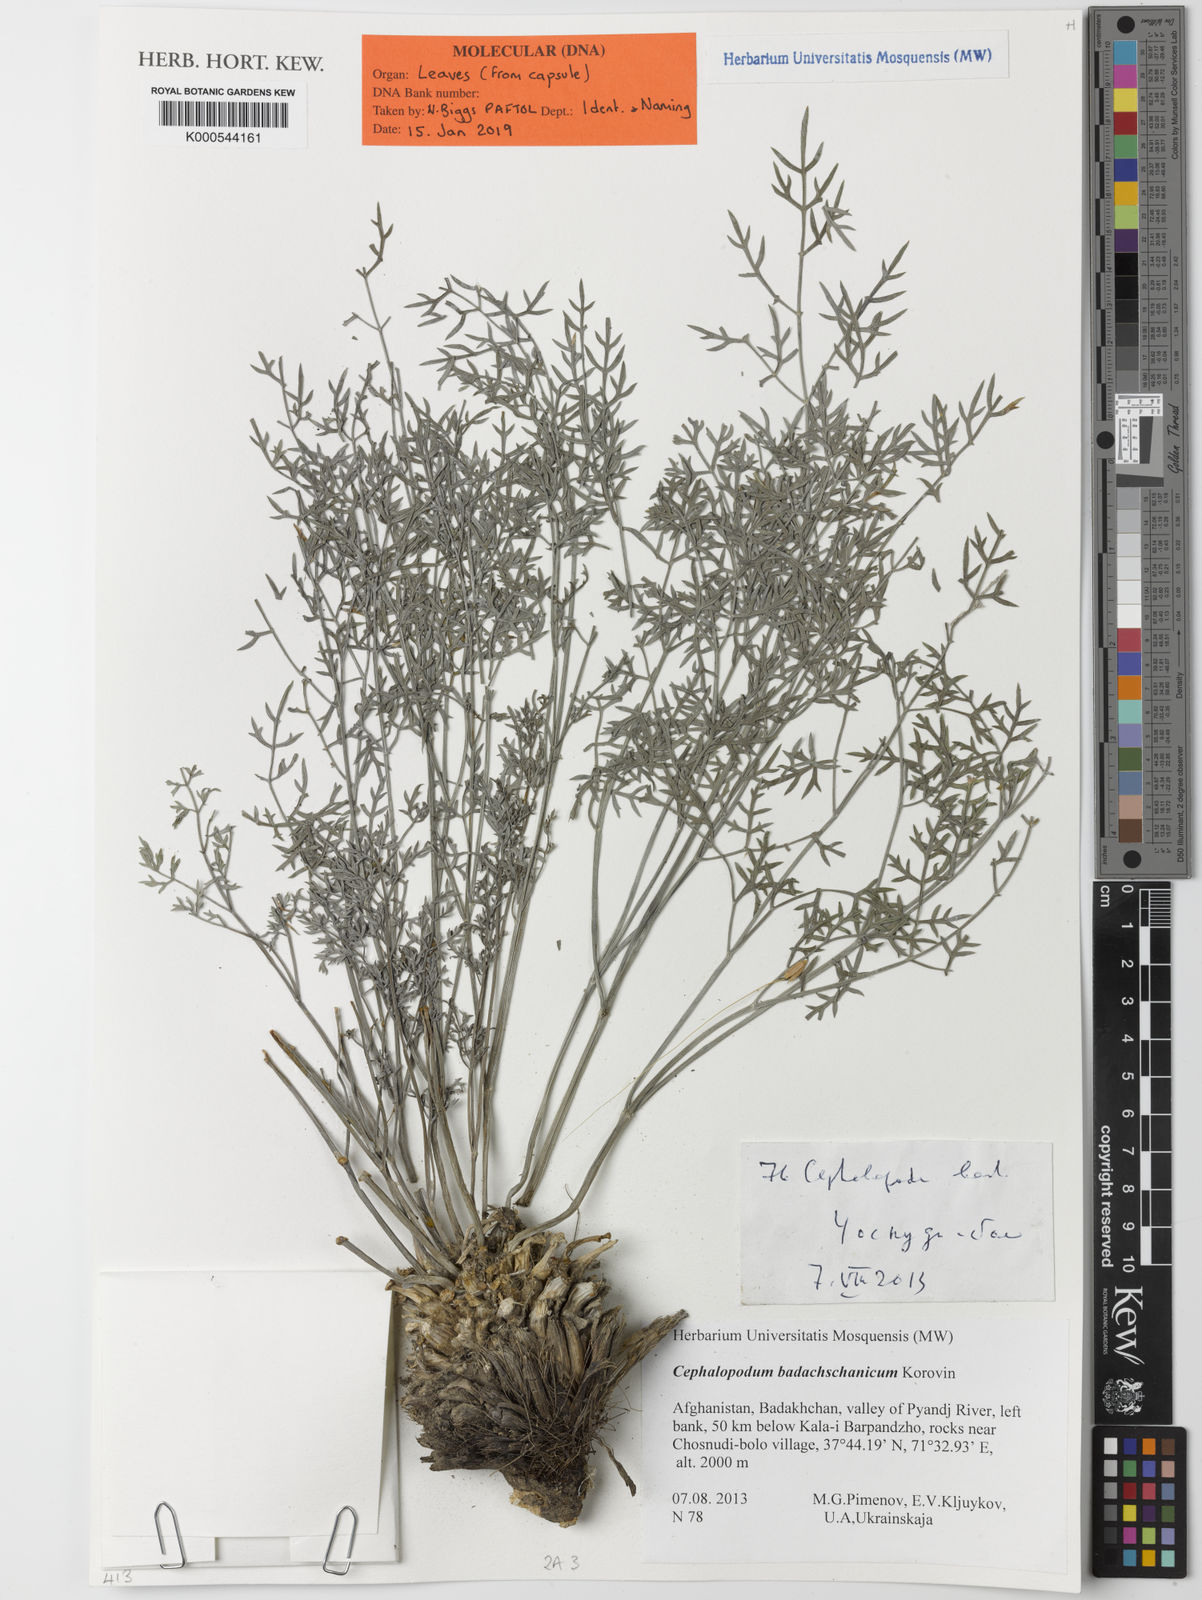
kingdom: Plantae
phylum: Tracheophyta
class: Magnoliopsida
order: Apiales
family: Apiaceae
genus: Cephalopodum
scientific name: Cephalopodum afghanicum
